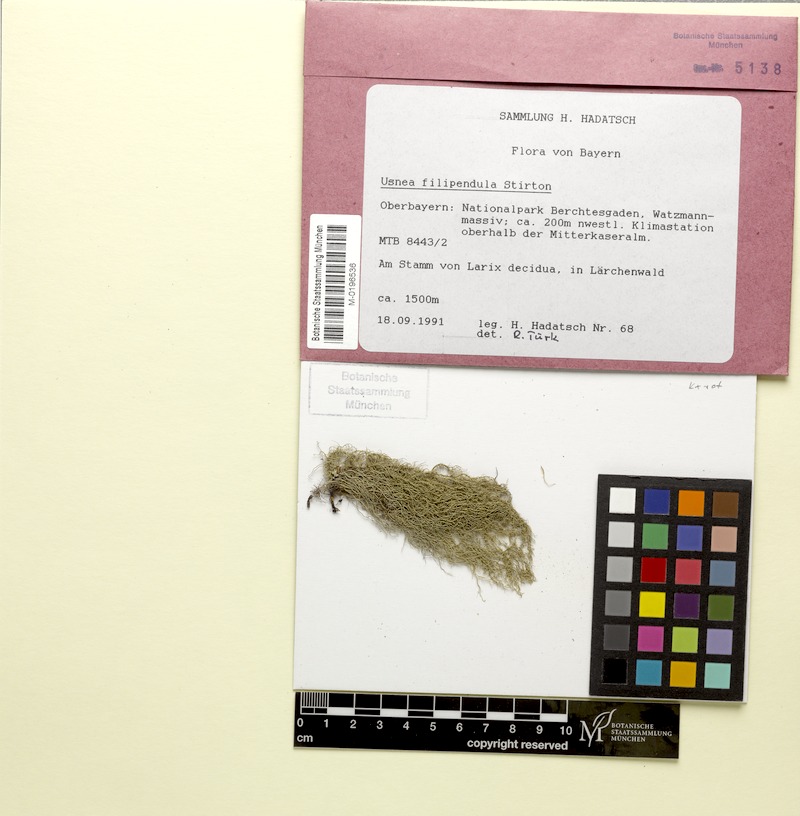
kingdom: Fungi
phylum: Ascomycota
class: Lecanoromycetes
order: Lecanorales
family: Parmeliaceae
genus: Usnea
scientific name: Usnea filipendula
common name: Fishbone beard lichen
